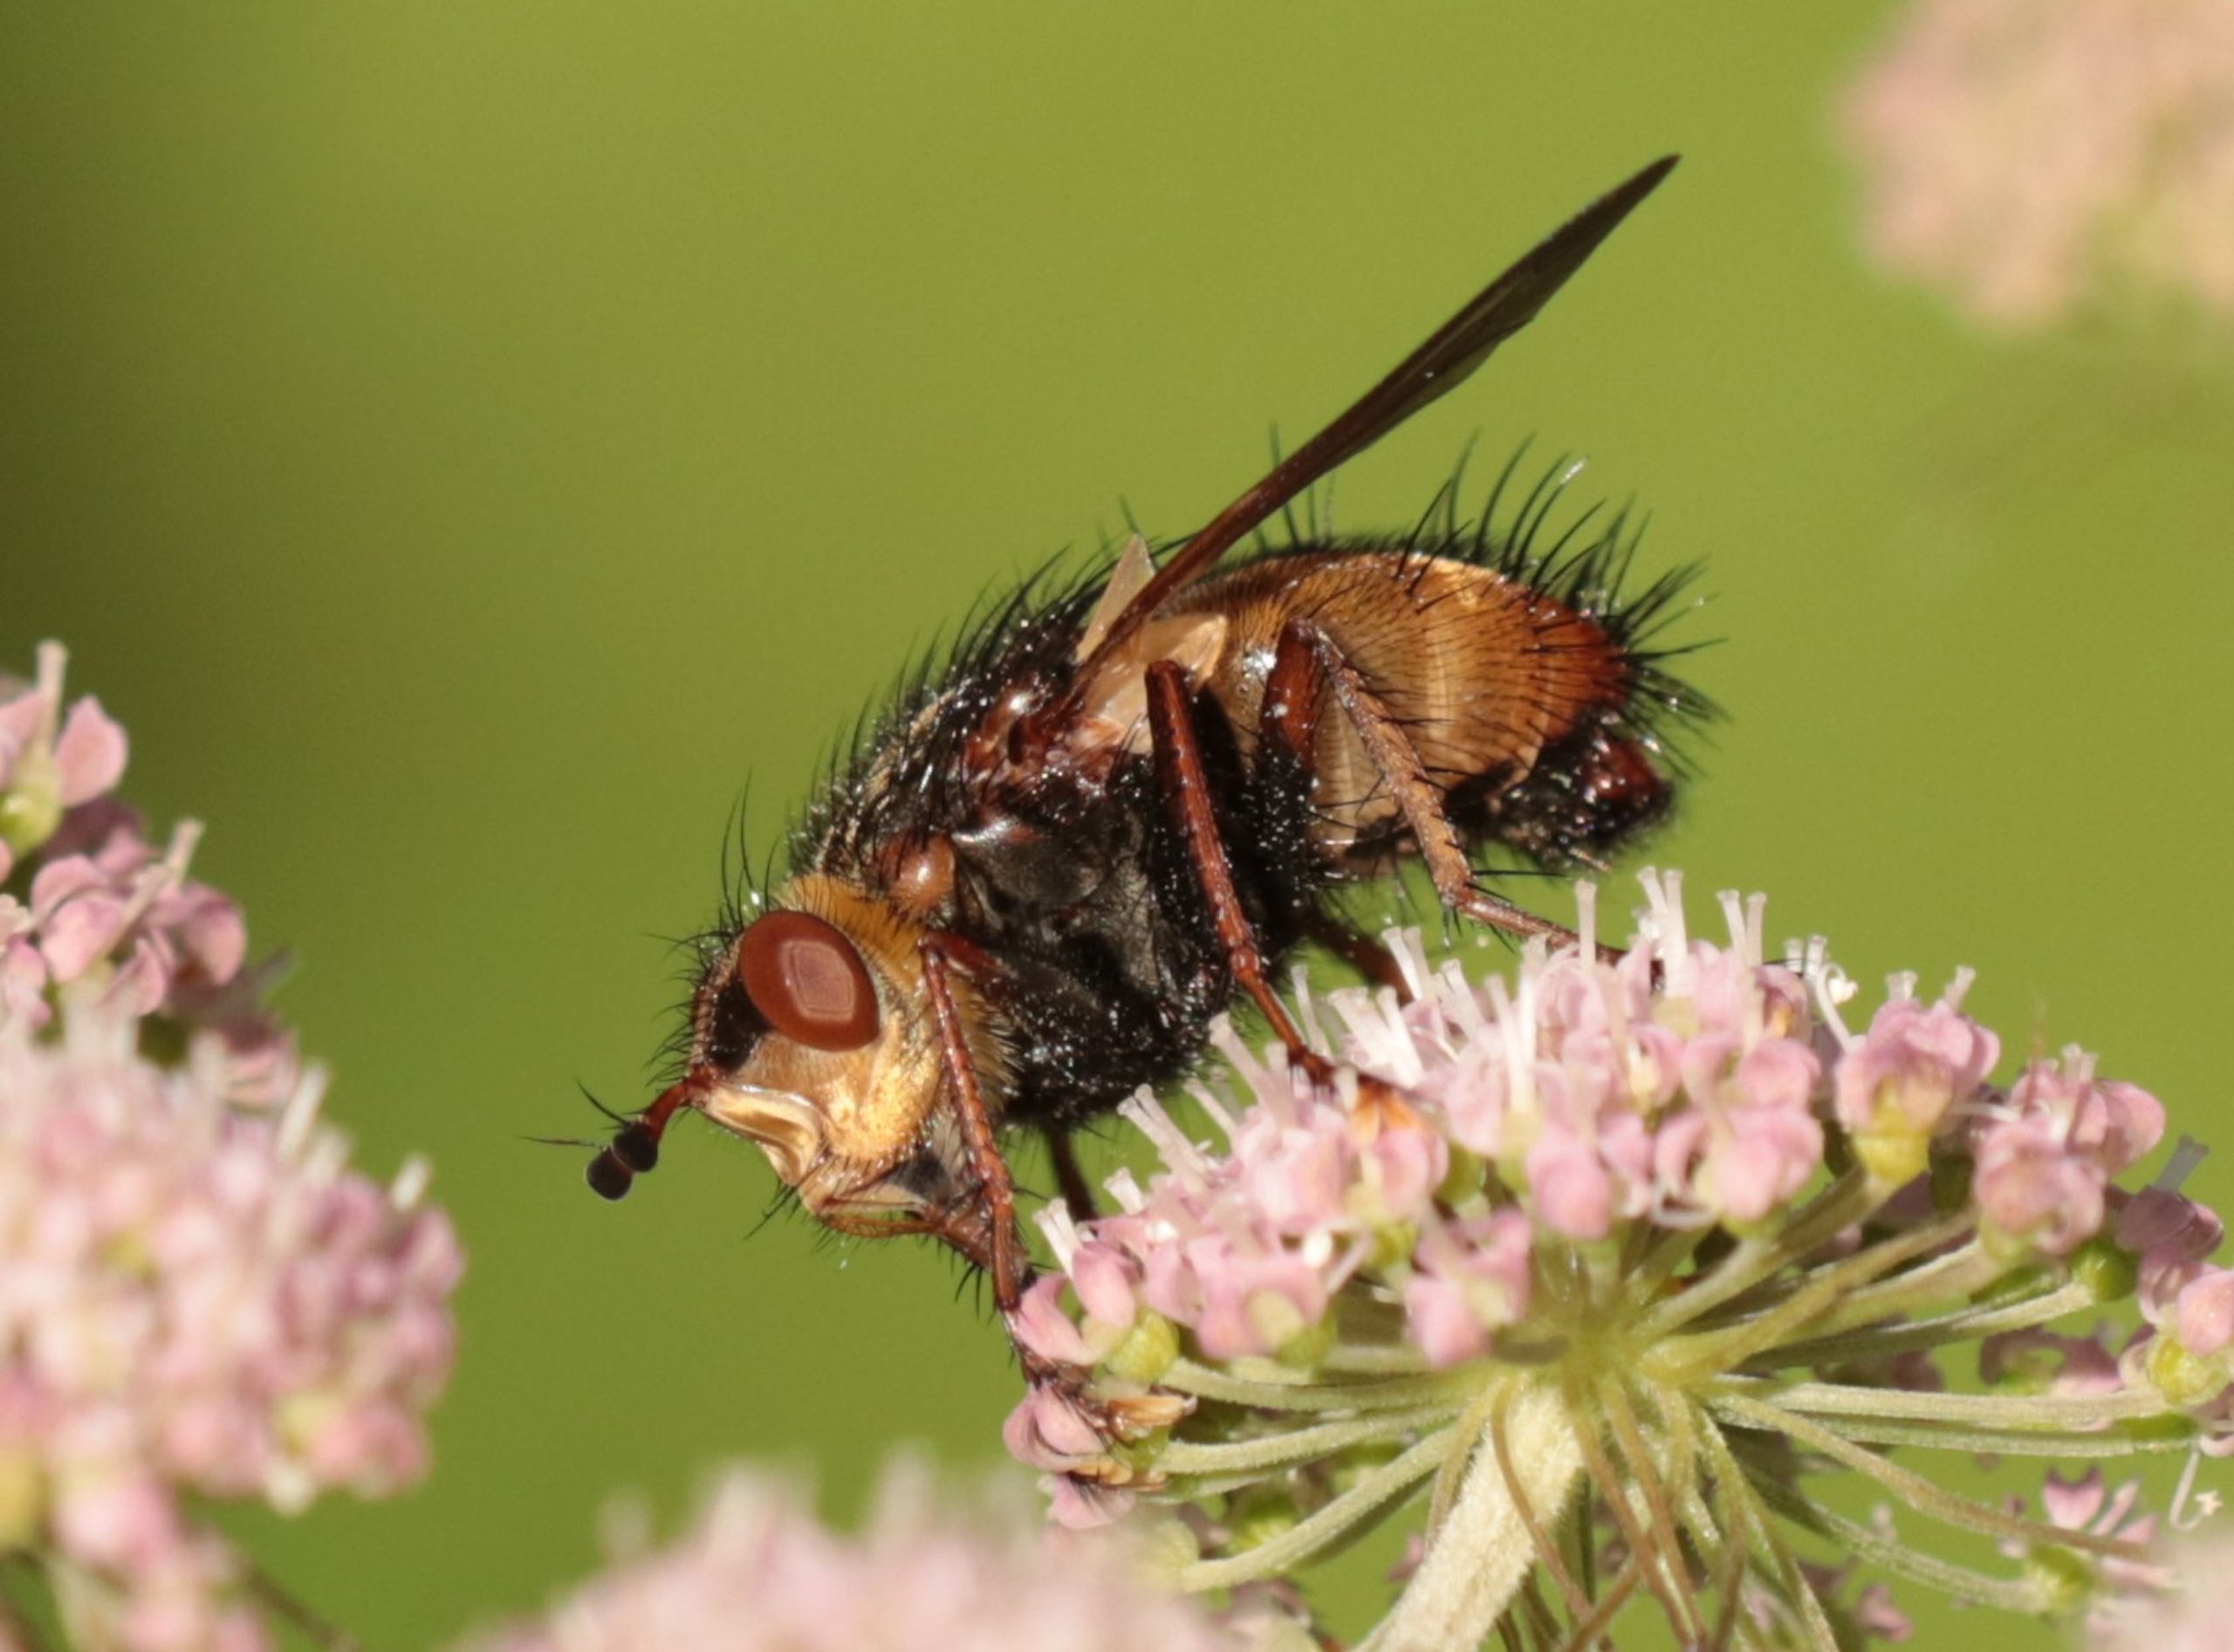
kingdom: Animalia
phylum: Arthropoda
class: Insecta
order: Diptera
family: Tachinidae
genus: Tachina
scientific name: Tachina fera
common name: Mellemfluen oskar
